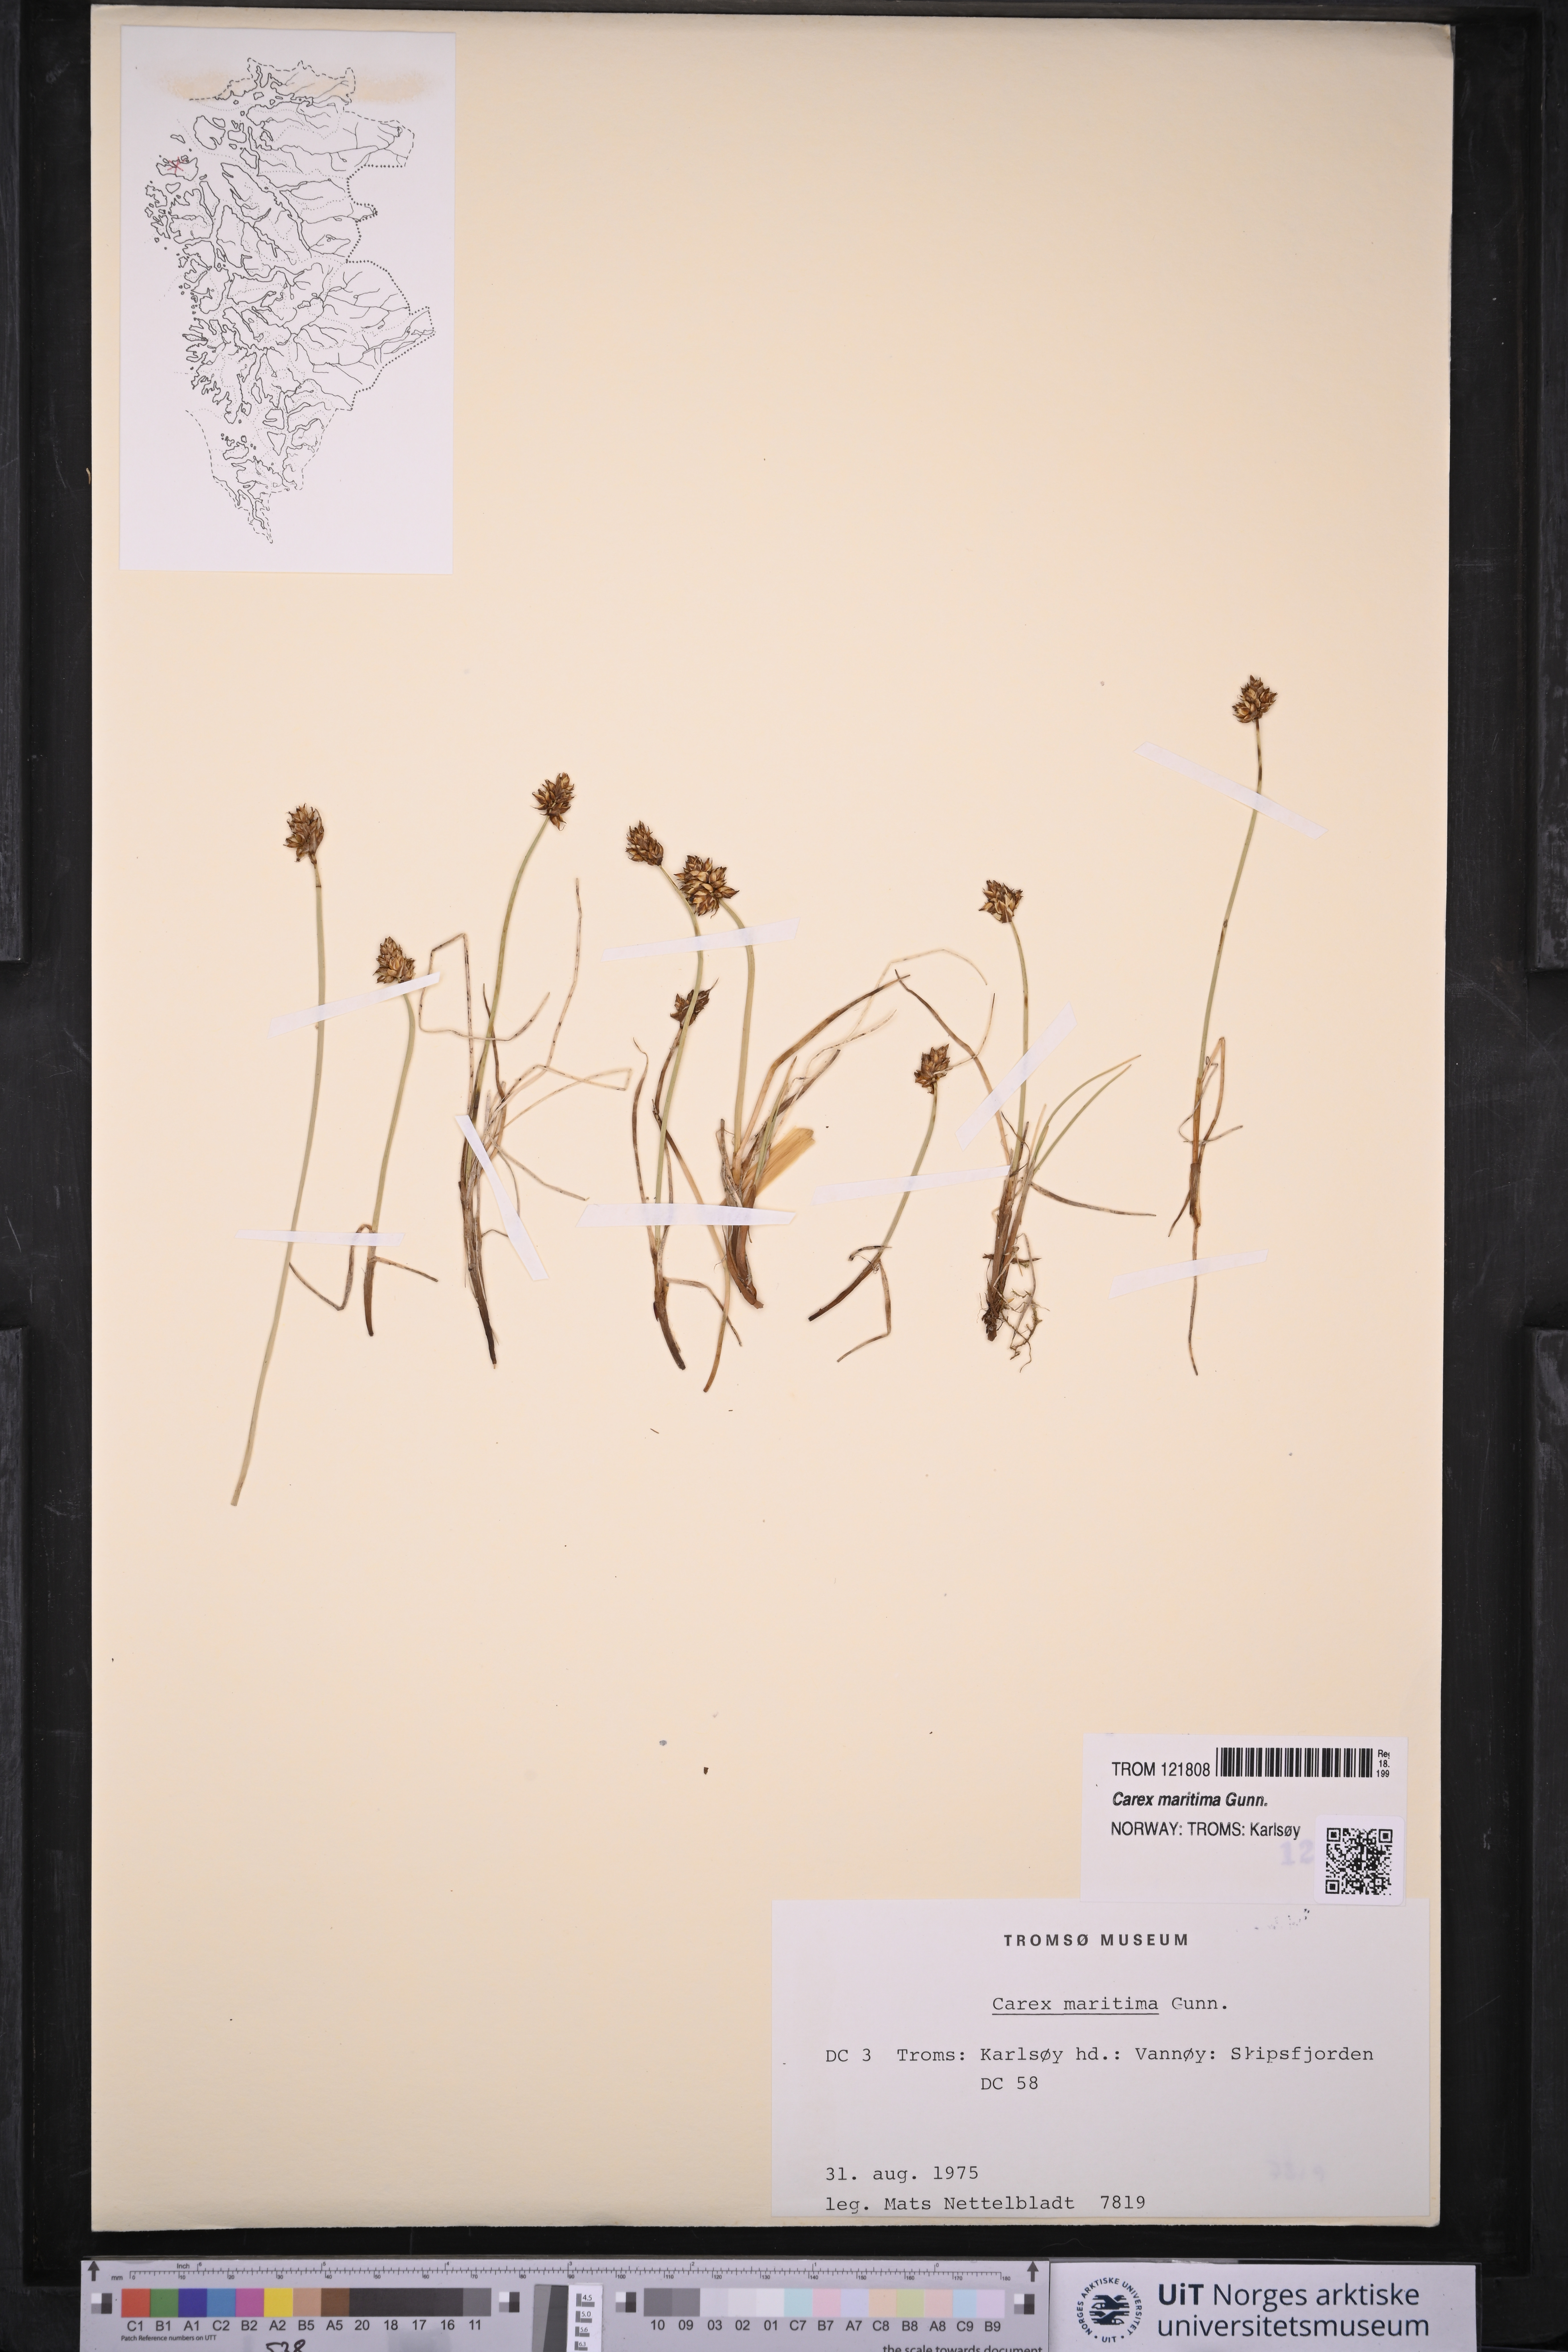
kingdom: Plantae
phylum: Tracheophyta
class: Liliopsida
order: Poales
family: Cyperaceae
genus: Carex
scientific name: Carex maritima
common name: Curved sedge
